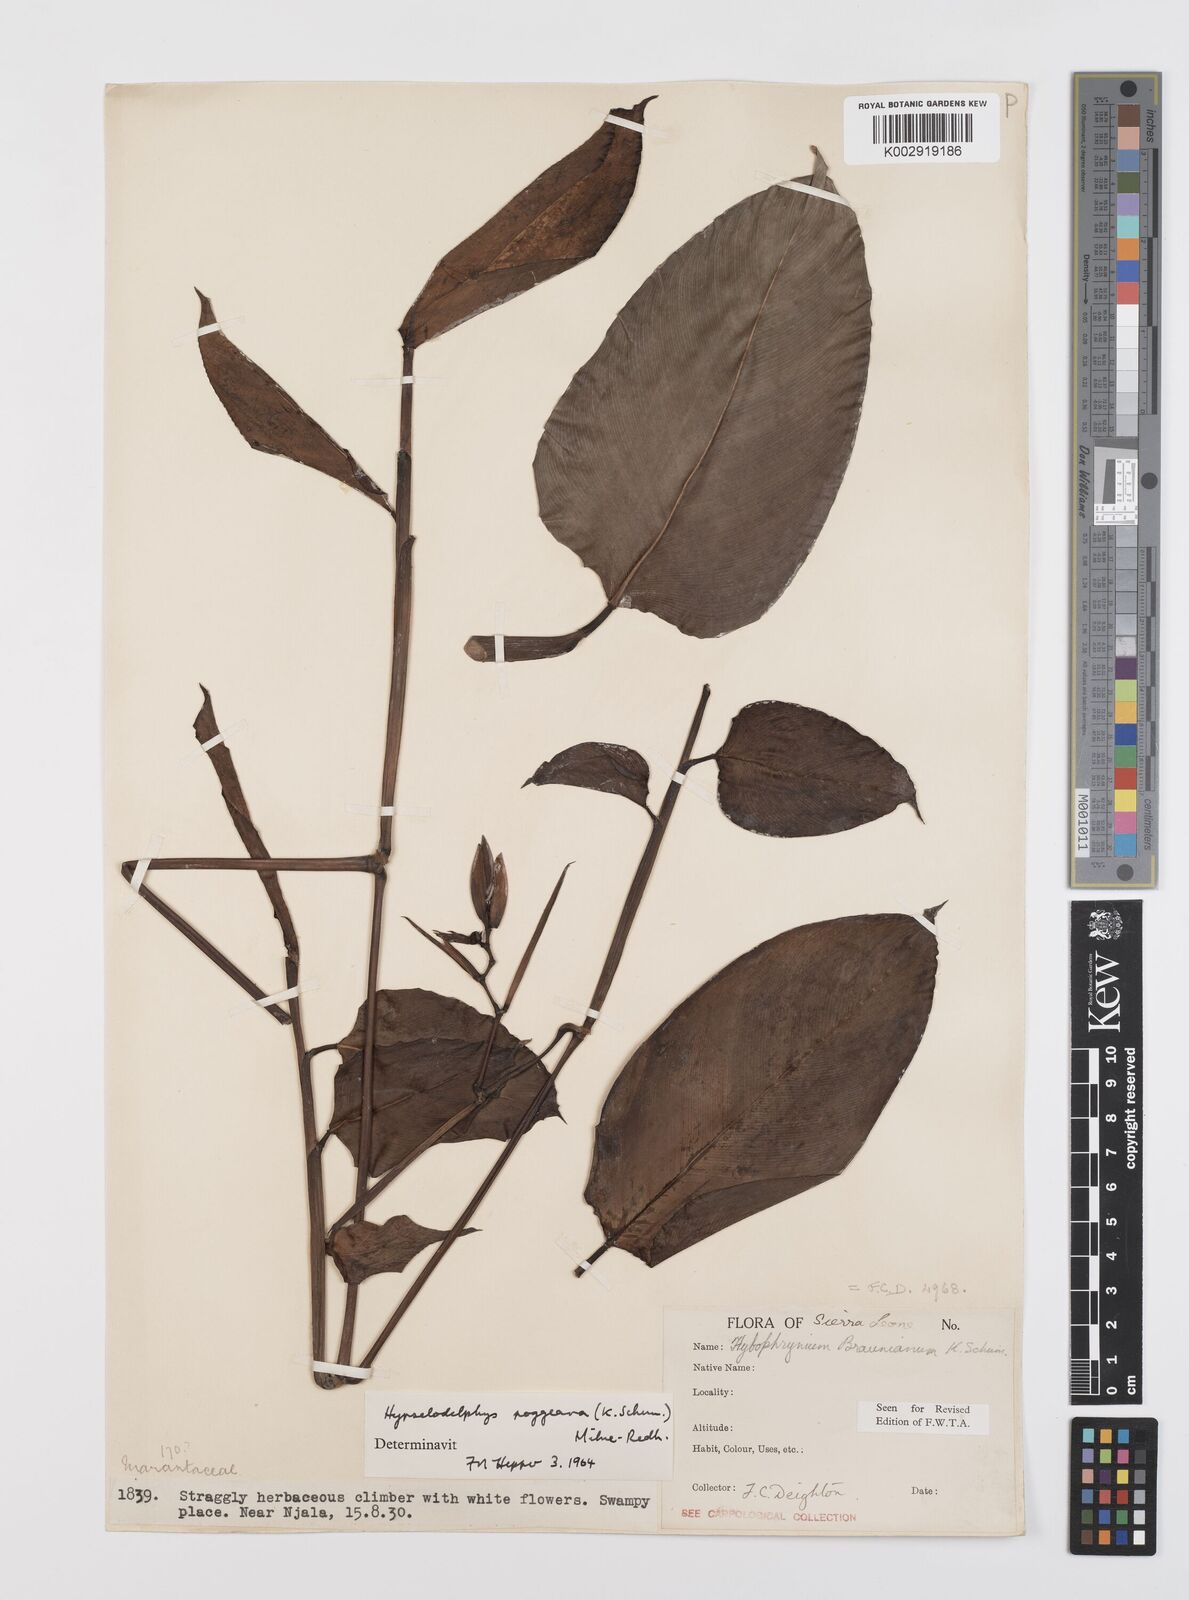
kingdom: Plantae
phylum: Tracheophyta
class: Liliopsida
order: Zingiberales
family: Marantaceae
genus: Hypselodelphys
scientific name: Hypselodelphys poggeana
